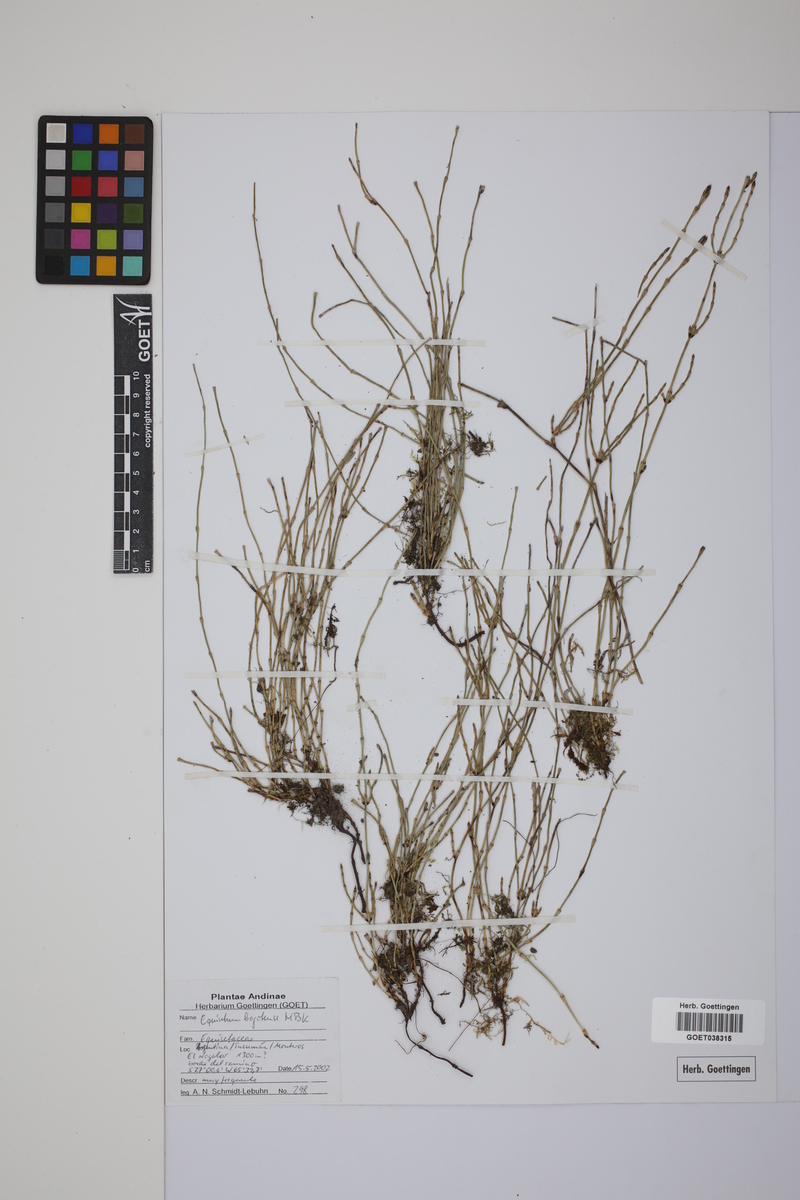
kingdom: Plantae
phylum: Tracheophyta
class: Polypodiopsida
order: Equisetales
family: Equisetaceae
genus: Equisetum
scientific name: Equisetum bogotense
